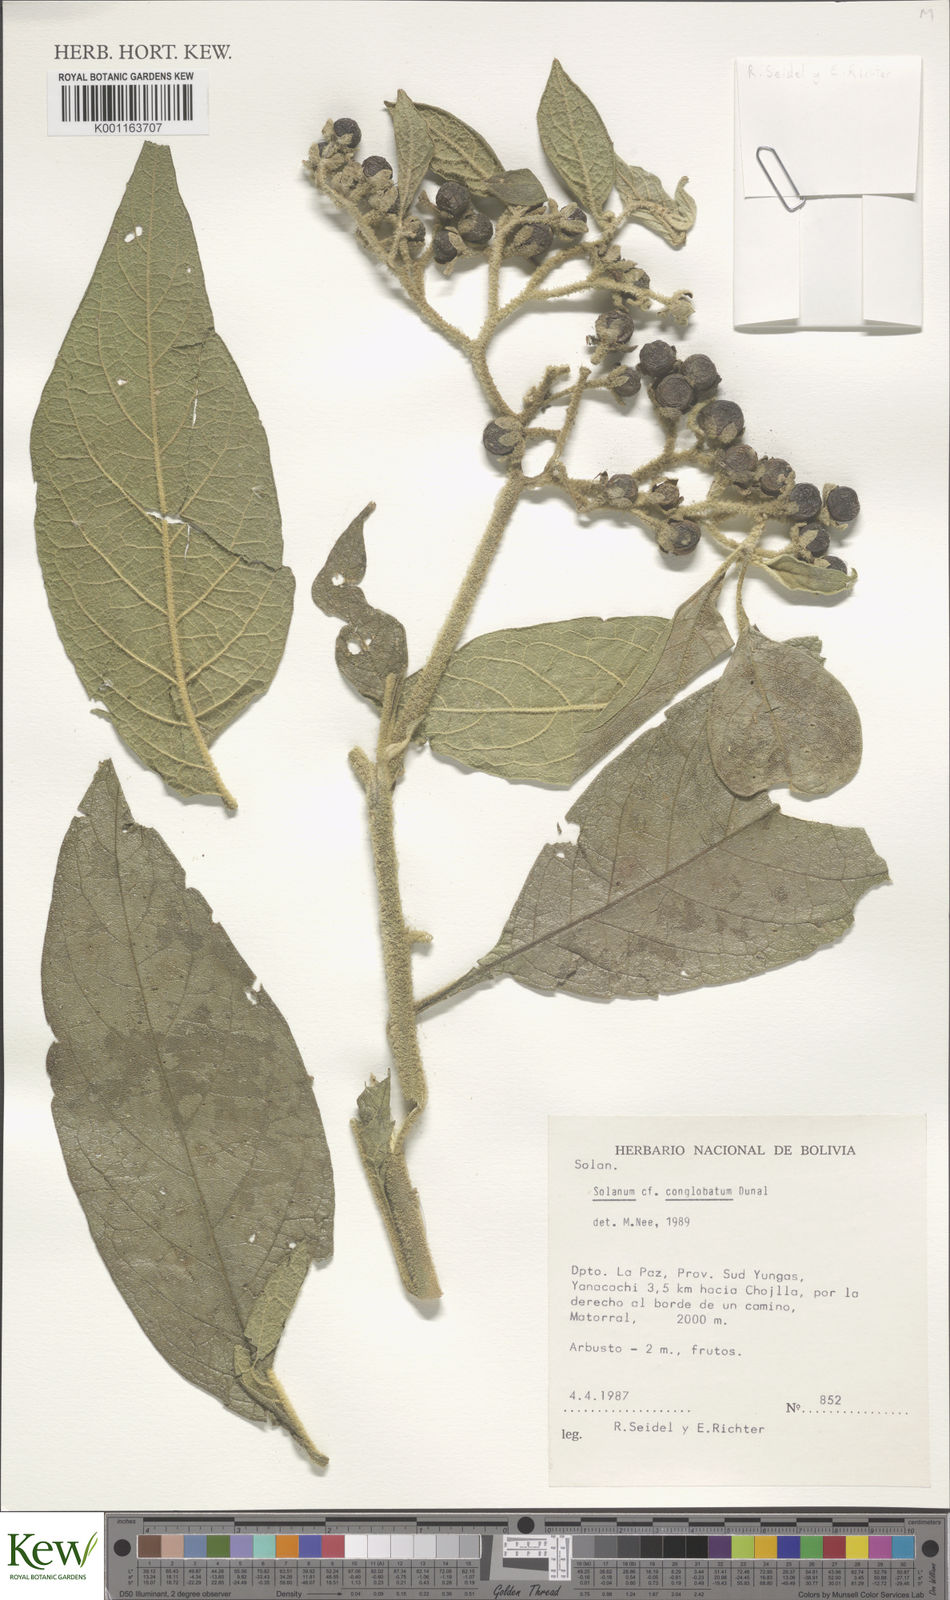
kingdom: Plantae
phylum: Tracheophyta
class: Magnoliopsida
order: Solanales
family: Solanaceae
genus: Solanum
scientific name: Solanum conglobatum
